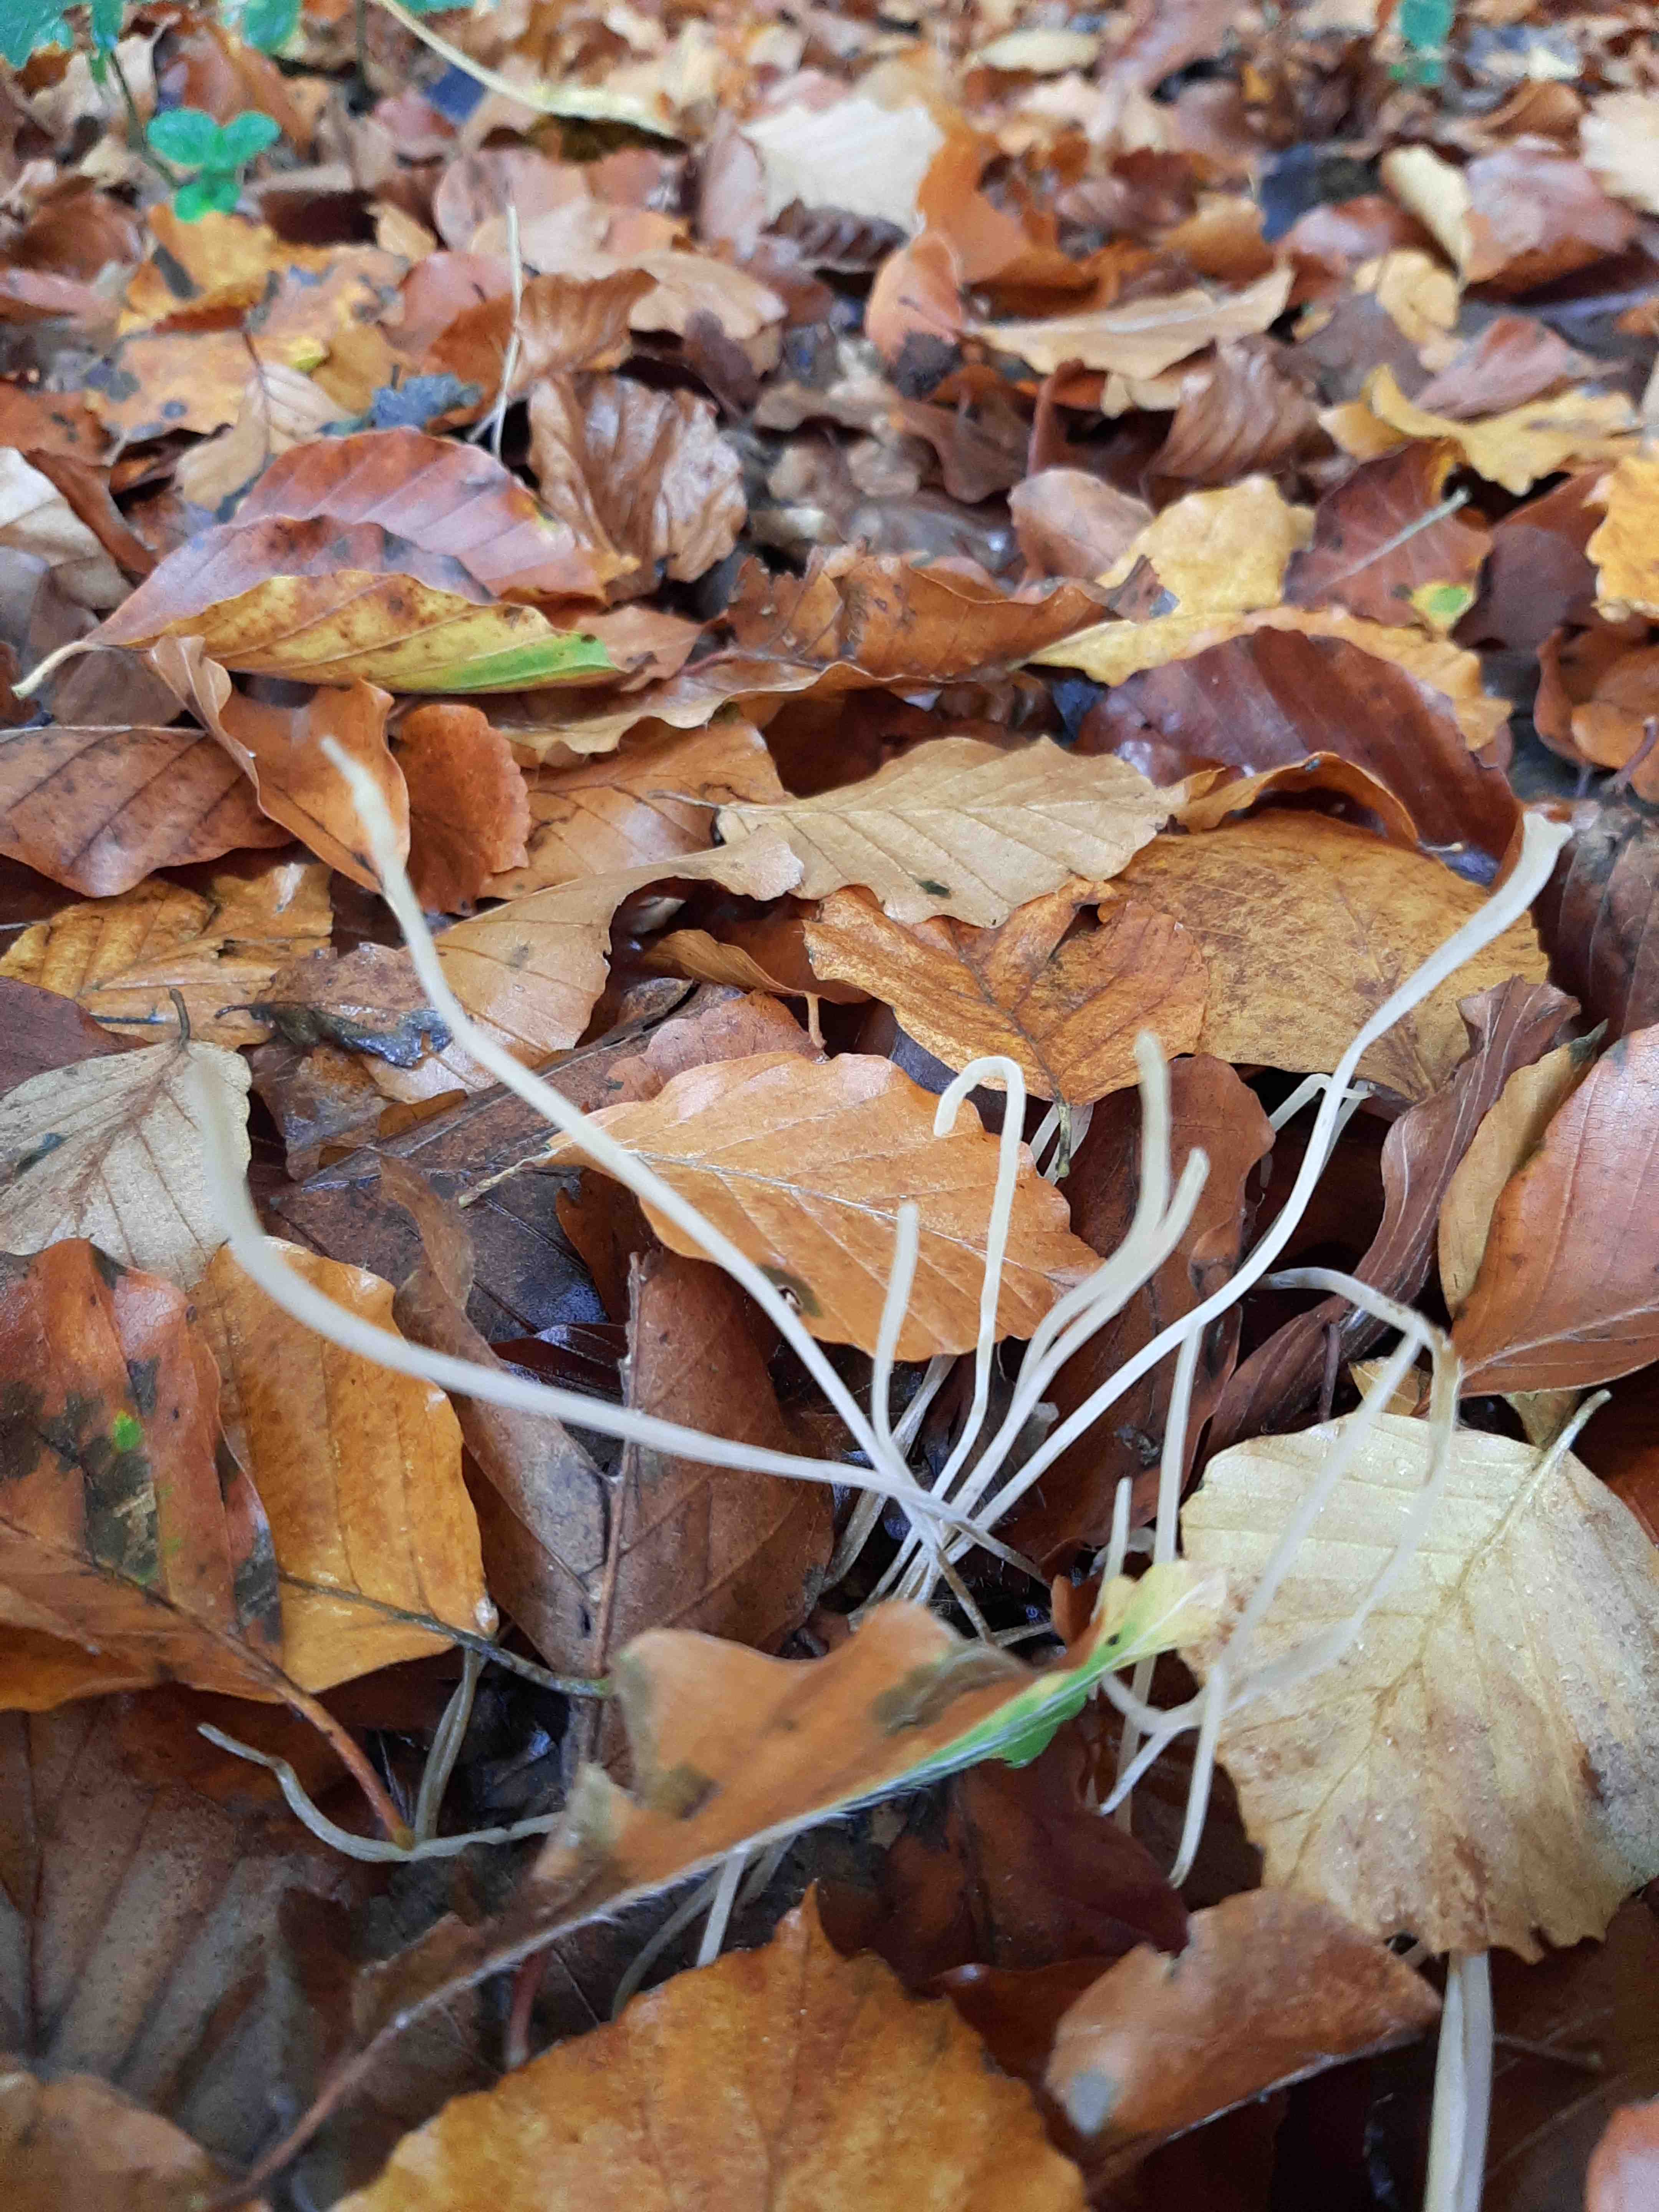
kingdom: Fungi
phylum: Basidiomycota
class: Agaricomycetes
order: Agaricales
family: Typhulaceae
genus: Typhula
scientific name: Typhula juncea
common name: trådagtig rørkølle
